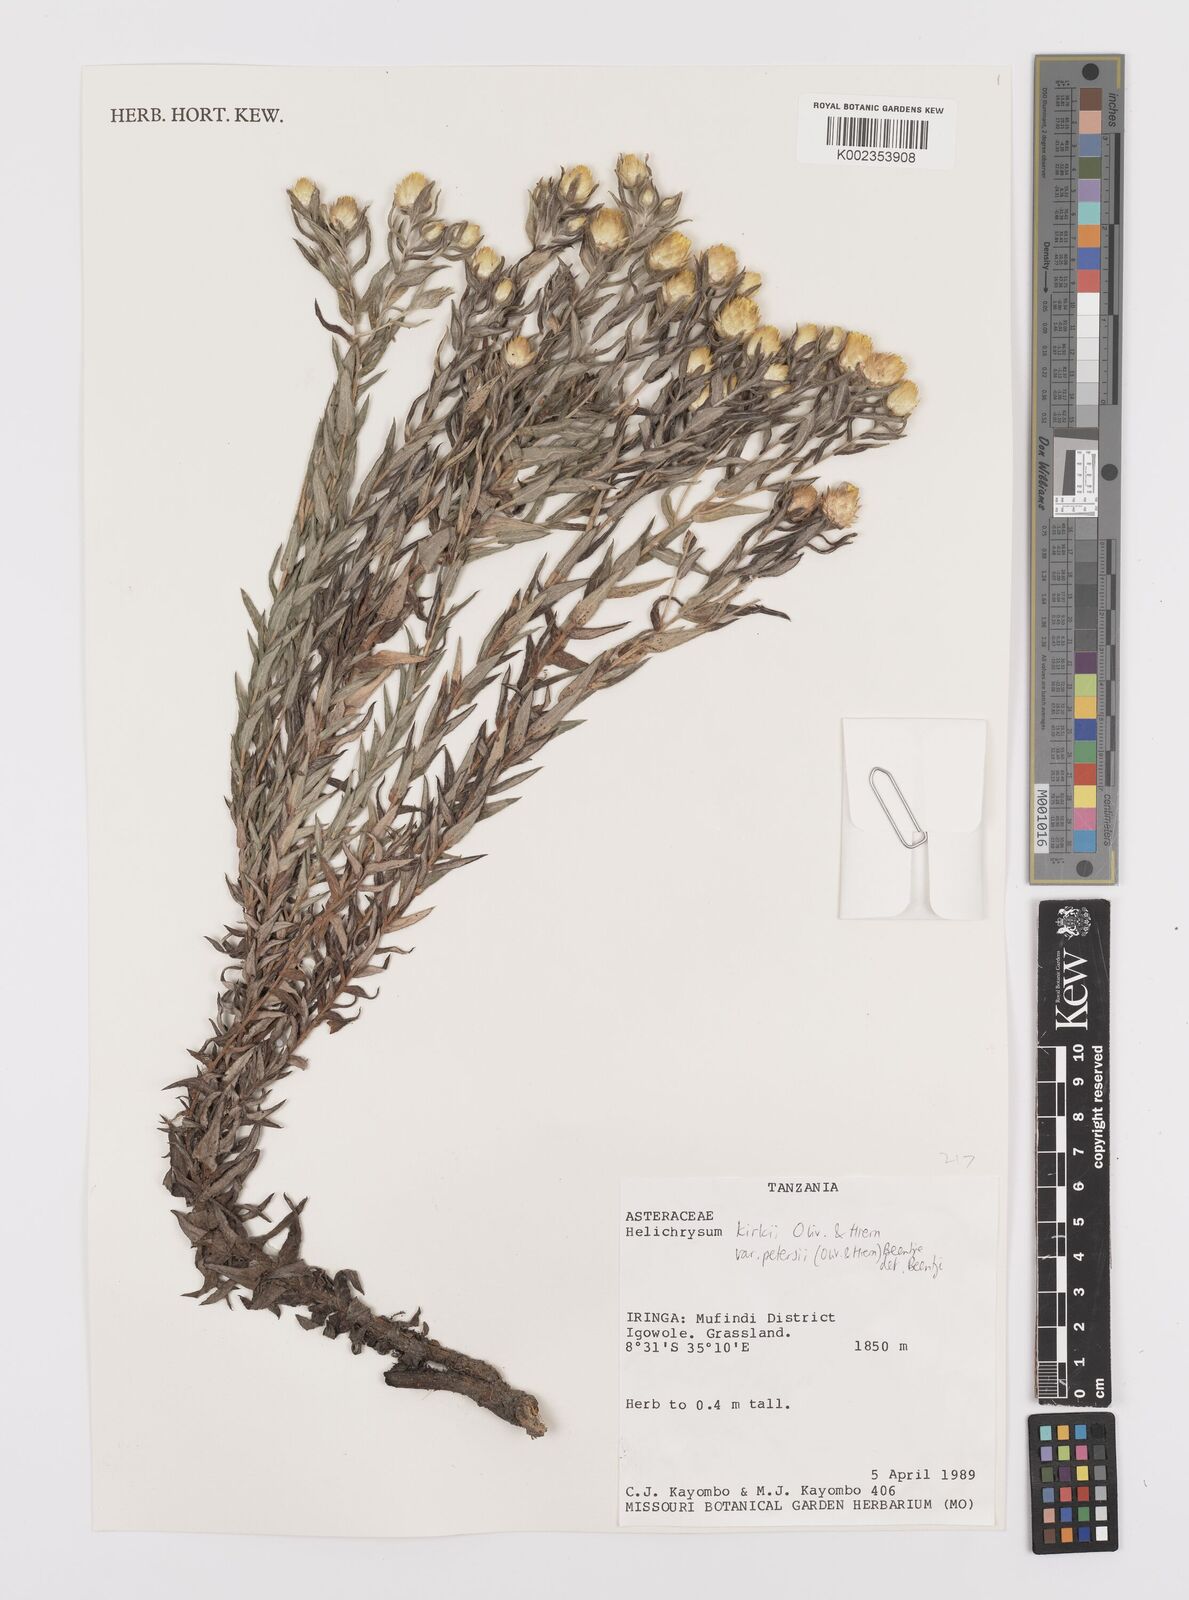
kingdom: Plantae
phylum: Tracheophyta
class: Magnoliopsida
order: Asterales
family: Asteraceae
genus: Helichrysum
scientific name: Helichrysum kirkii
